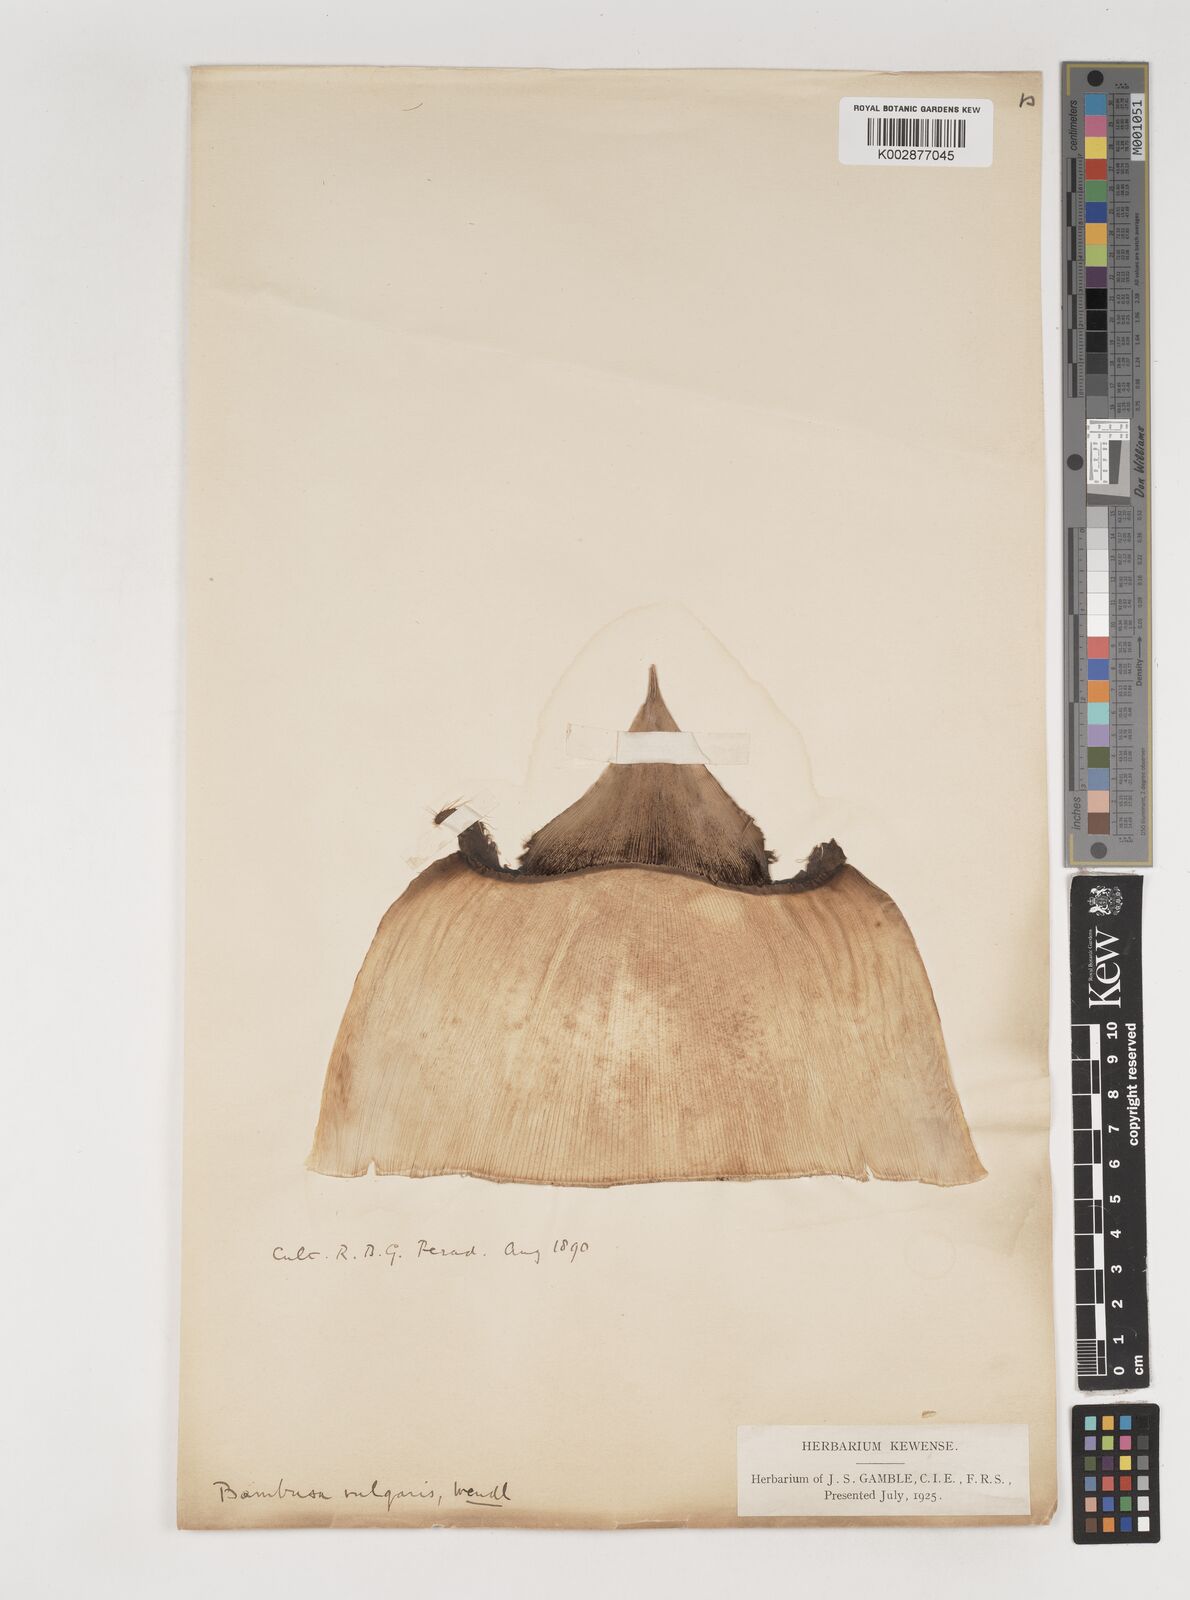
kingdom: Plantae
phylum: Tracheophyta
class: Liliopsida
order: Poales
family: Poaceae
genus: Bambusa
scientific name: Bambusa vulgaris
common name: Common bamboo
